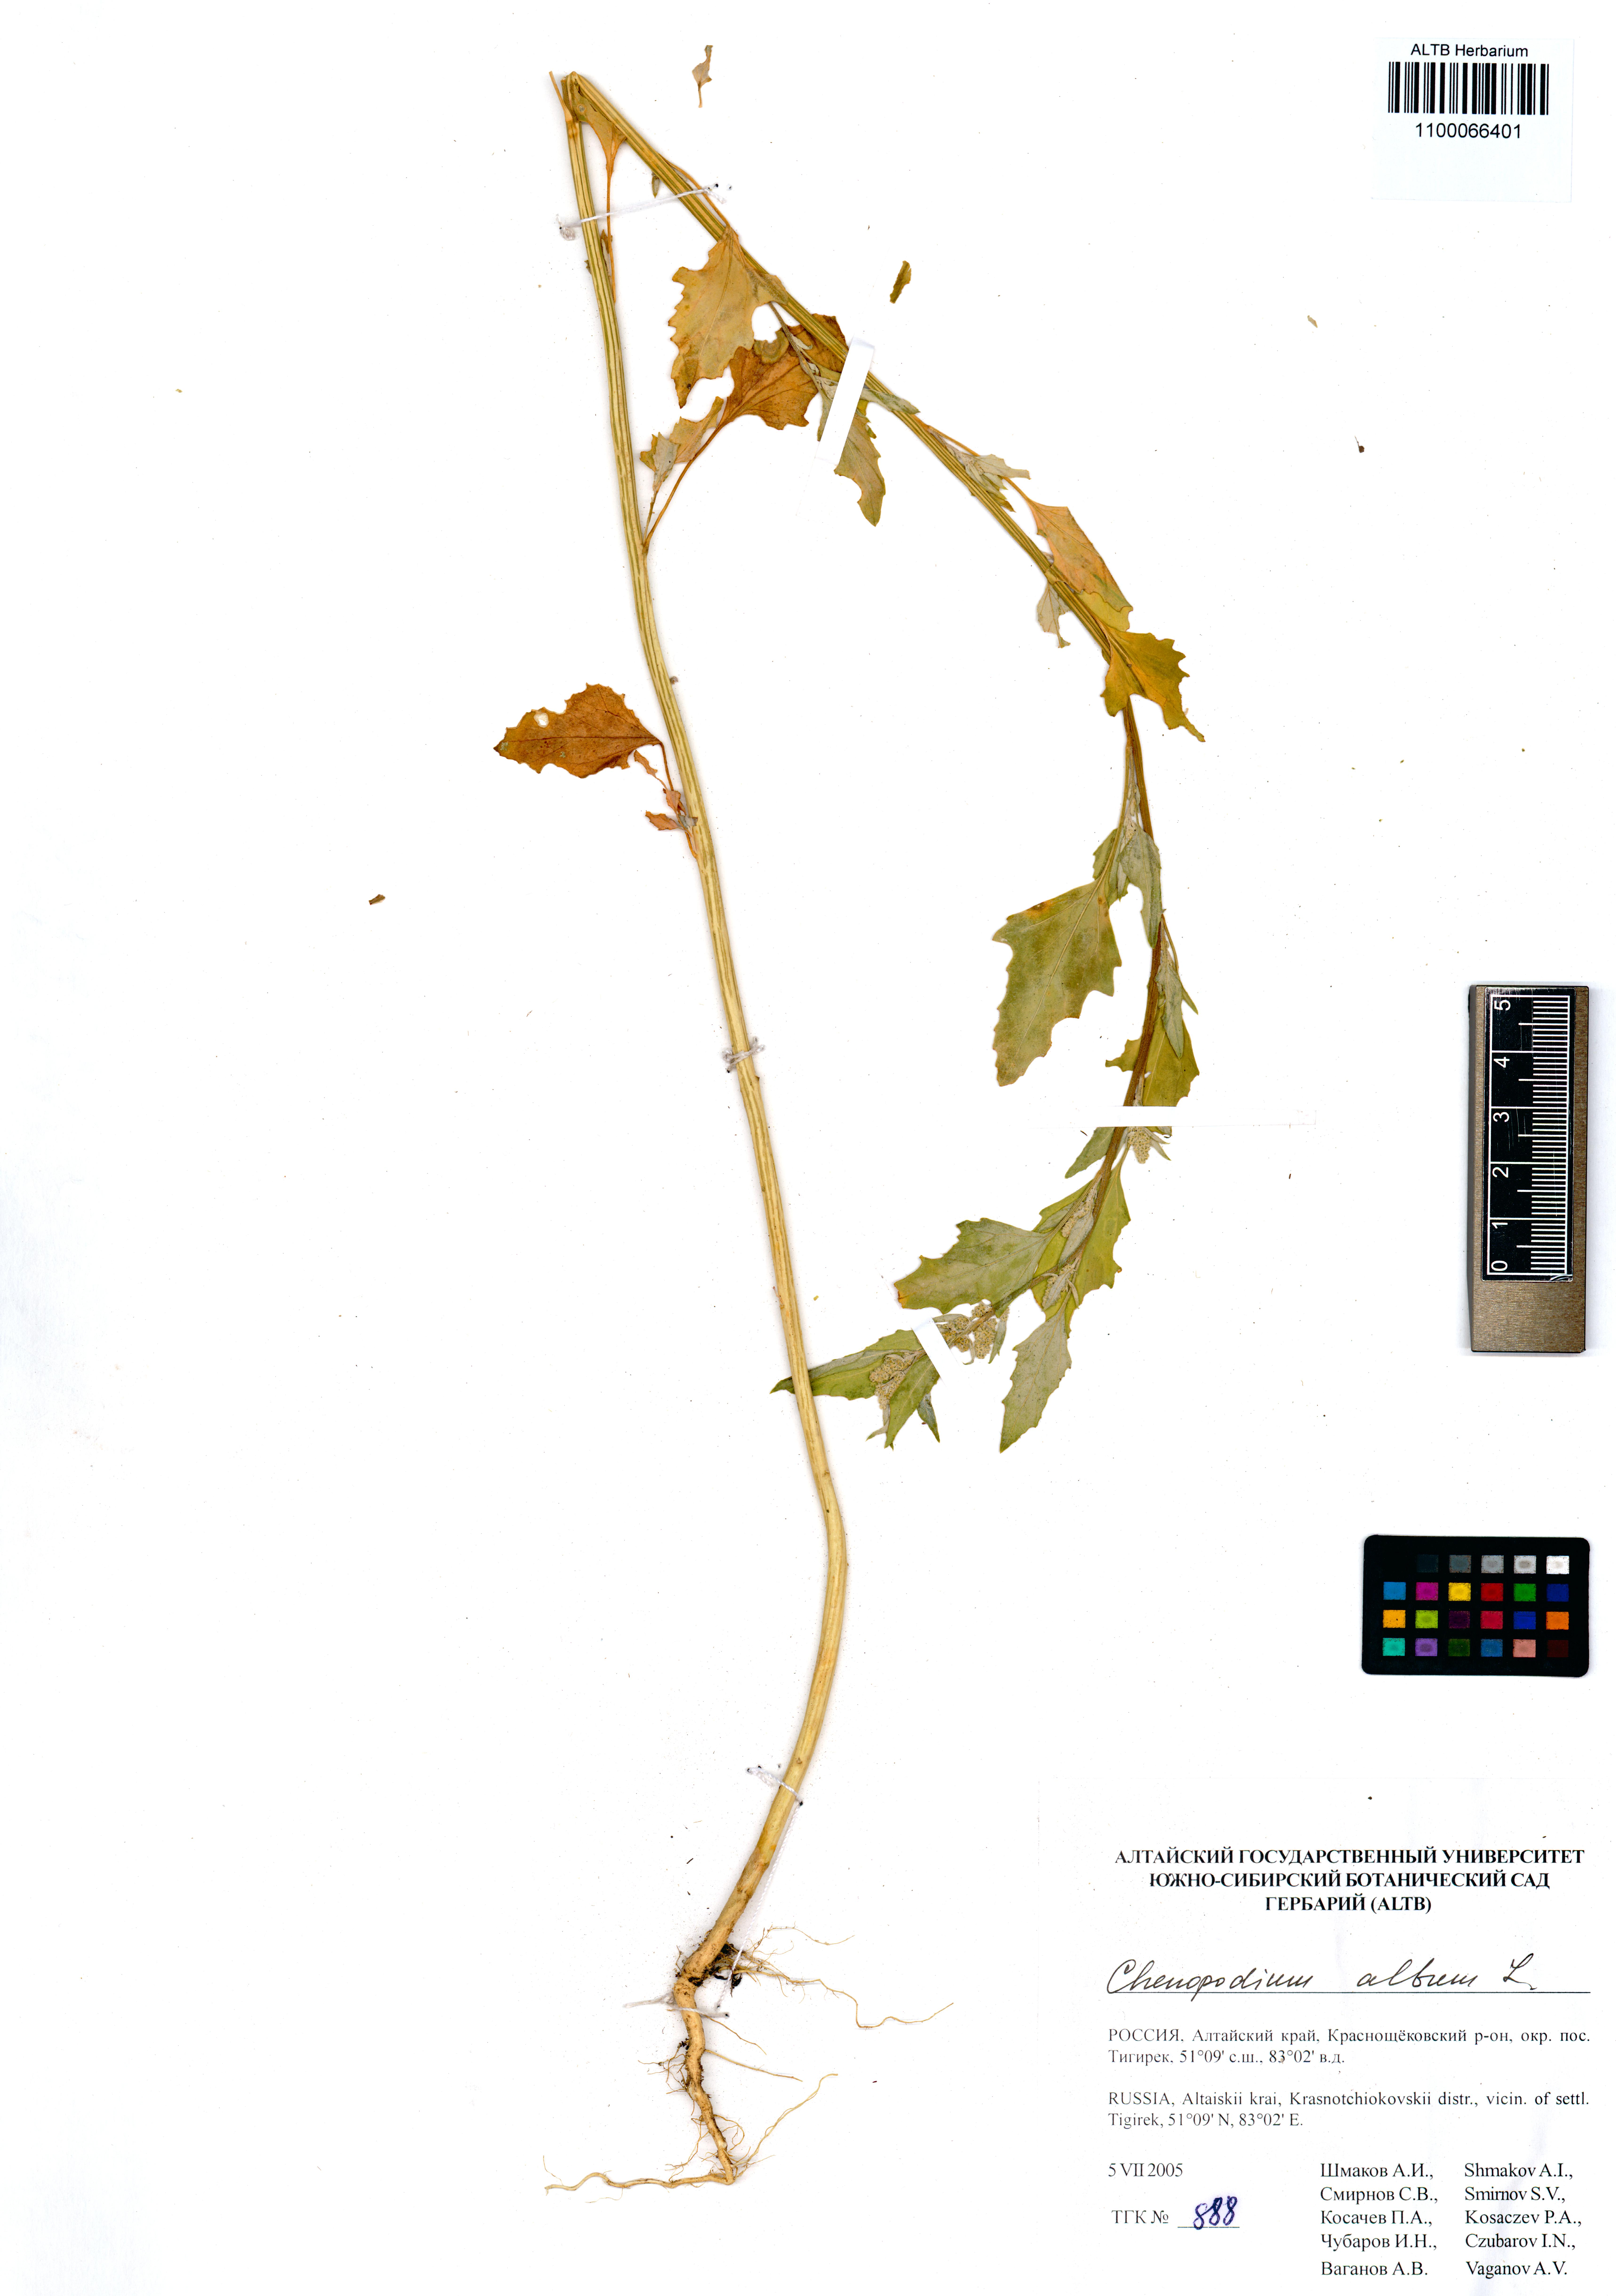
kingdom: Plantae
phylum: Tracheophyta
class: Magnoliopsida
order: Caryophyllales
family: Amaranthaceae
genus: Chenopodium
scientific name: Chenopodium album
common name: Fat-hen
